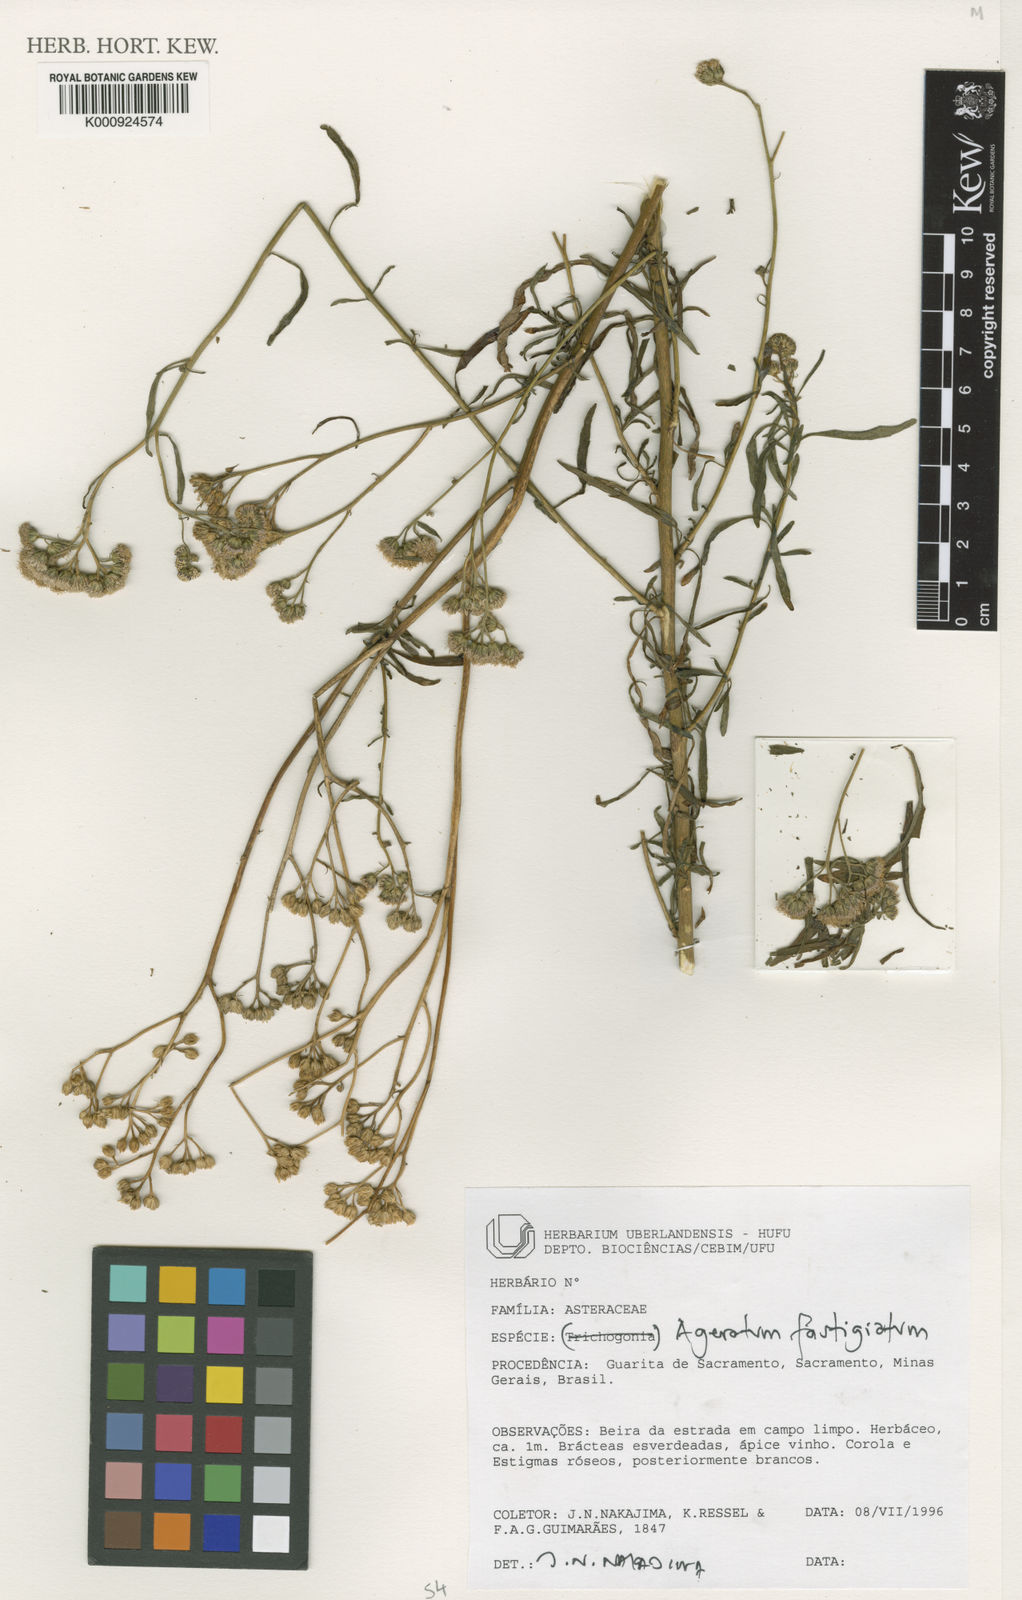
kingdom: Plantae
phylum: Tracheophyta
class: Magnoliopsida
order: Asterales
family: Asteraceae
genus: Ageratum
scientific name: Ageratum fastigiatum
